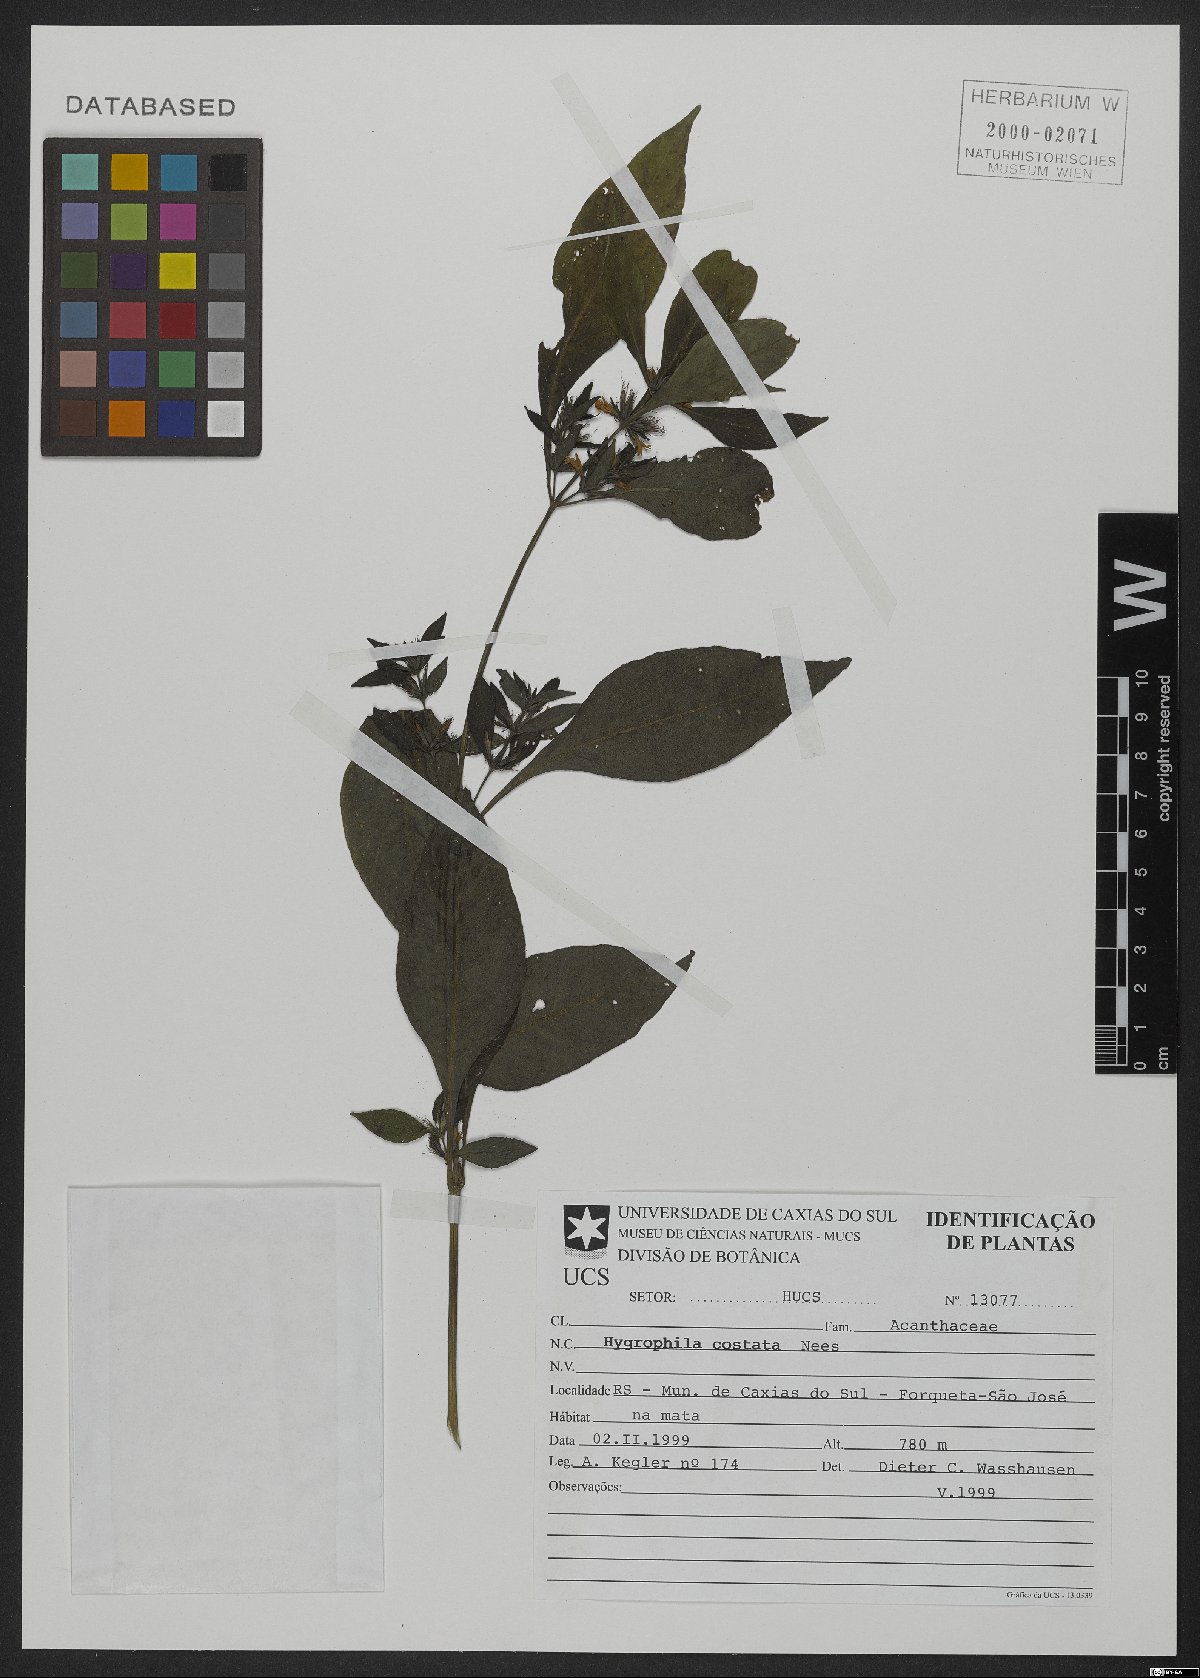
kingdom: Plantae
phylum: Tracheophyta
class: Magnoliopsida
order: Lamiales
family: Acanthaceae
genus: Hygrophila
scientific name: Hygrophila costata
